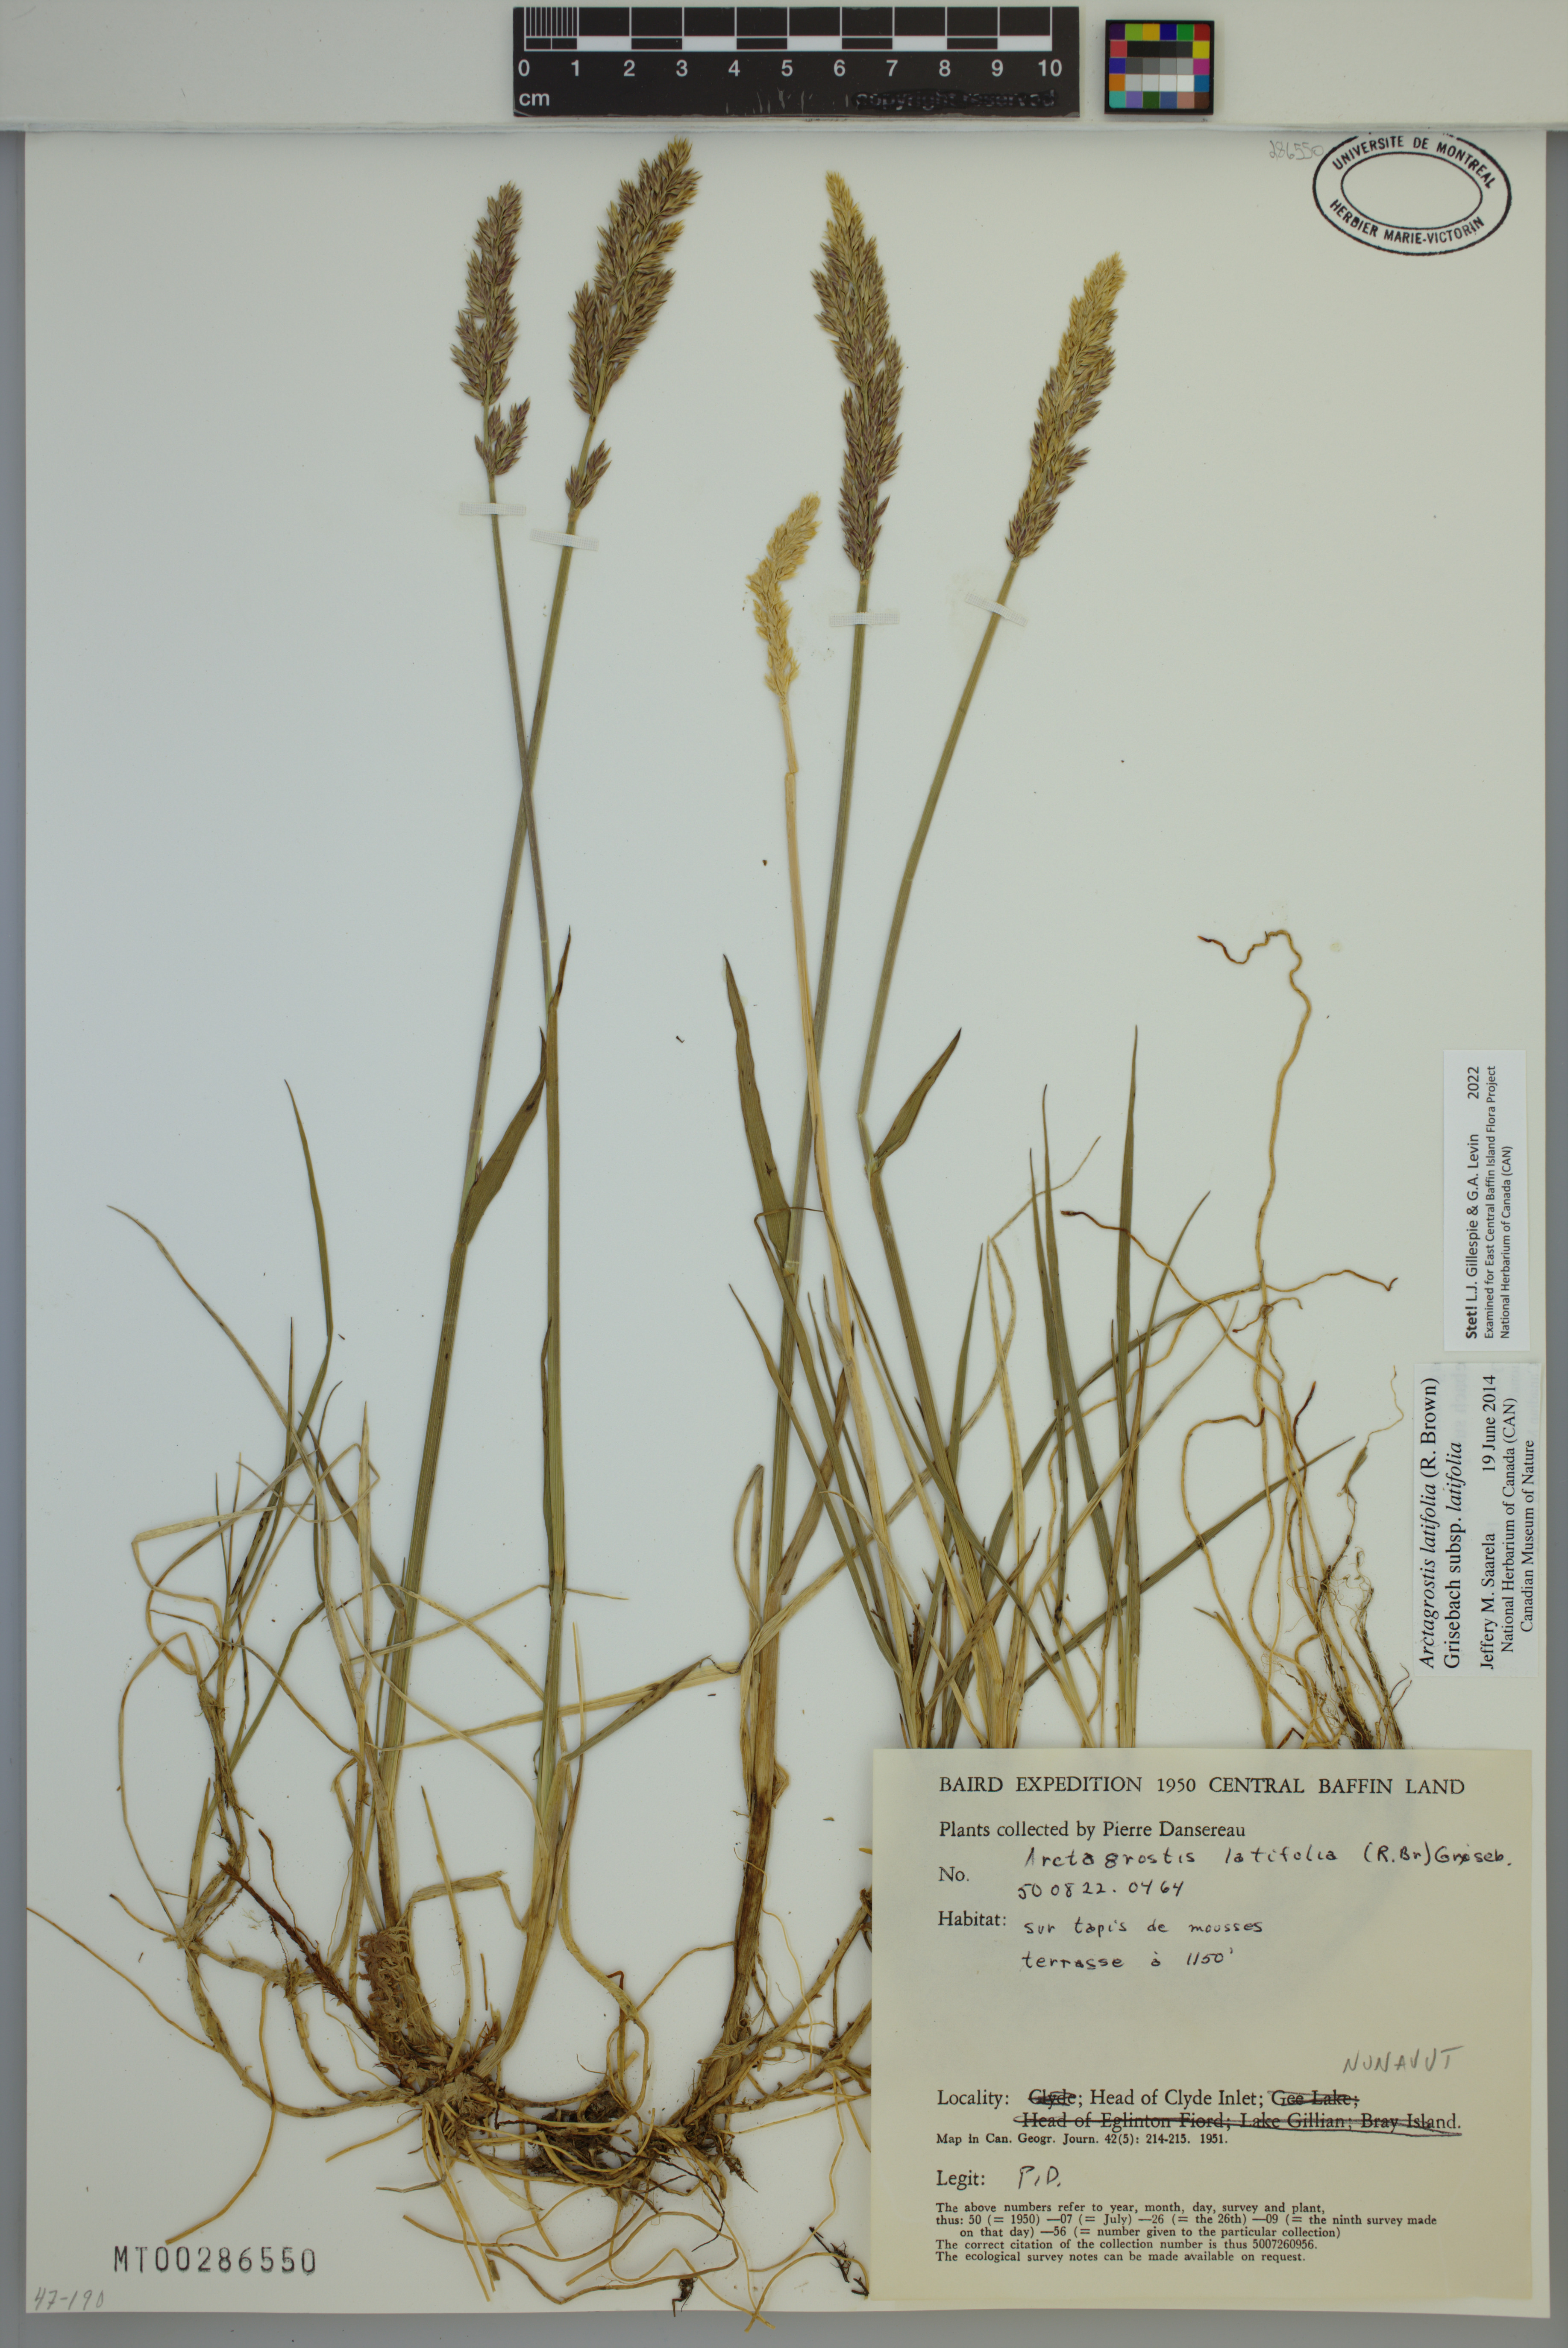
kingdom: Plantae
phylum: Tracheophyta
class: Liliopsida
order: Poales
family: Poaceae
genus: Arctagrostis
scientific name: Arctagrostis latifolia
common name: Arctic grass
